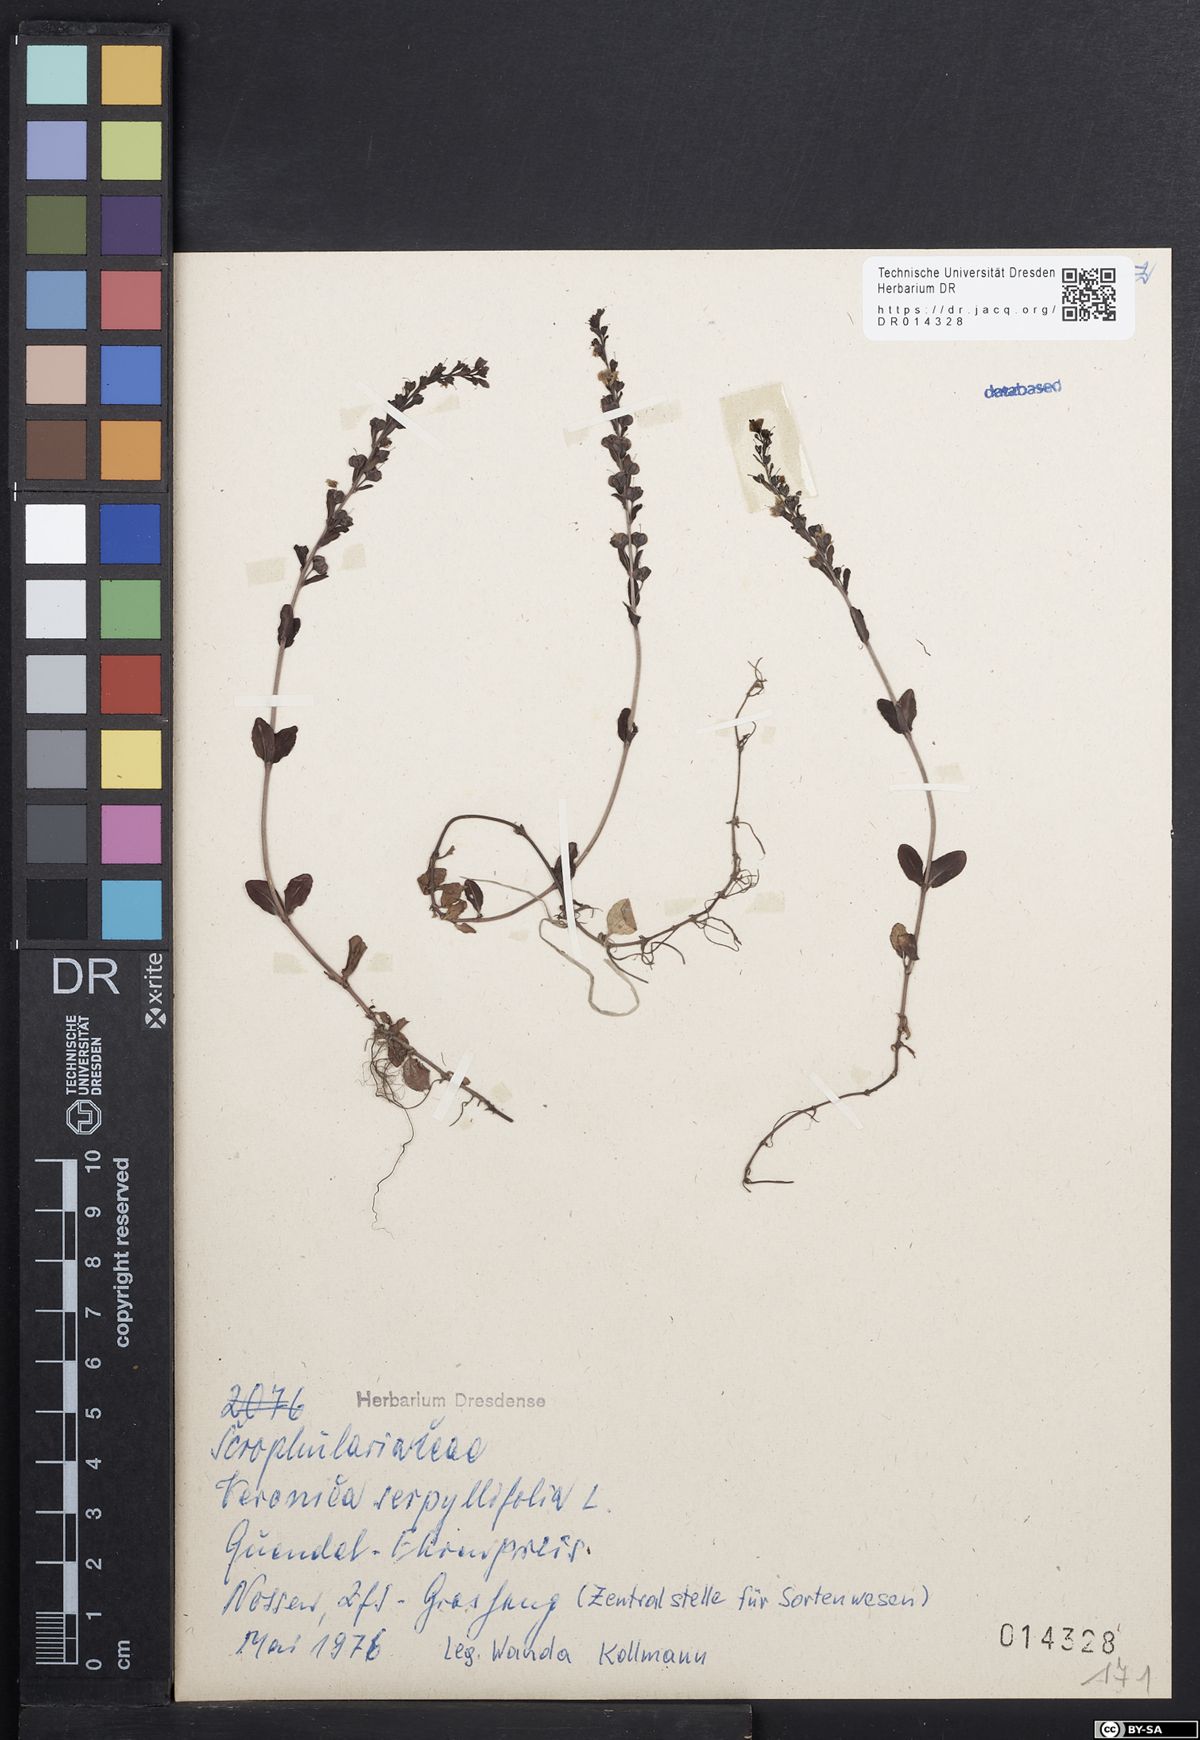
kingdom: Plantae
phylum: Tracheophyta
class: Magnoliopsida
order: Lamiales
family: Plantaginaceae
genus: Veronica
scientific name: Veronica serpyllifolia
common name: Thyme-leaved speedwell
